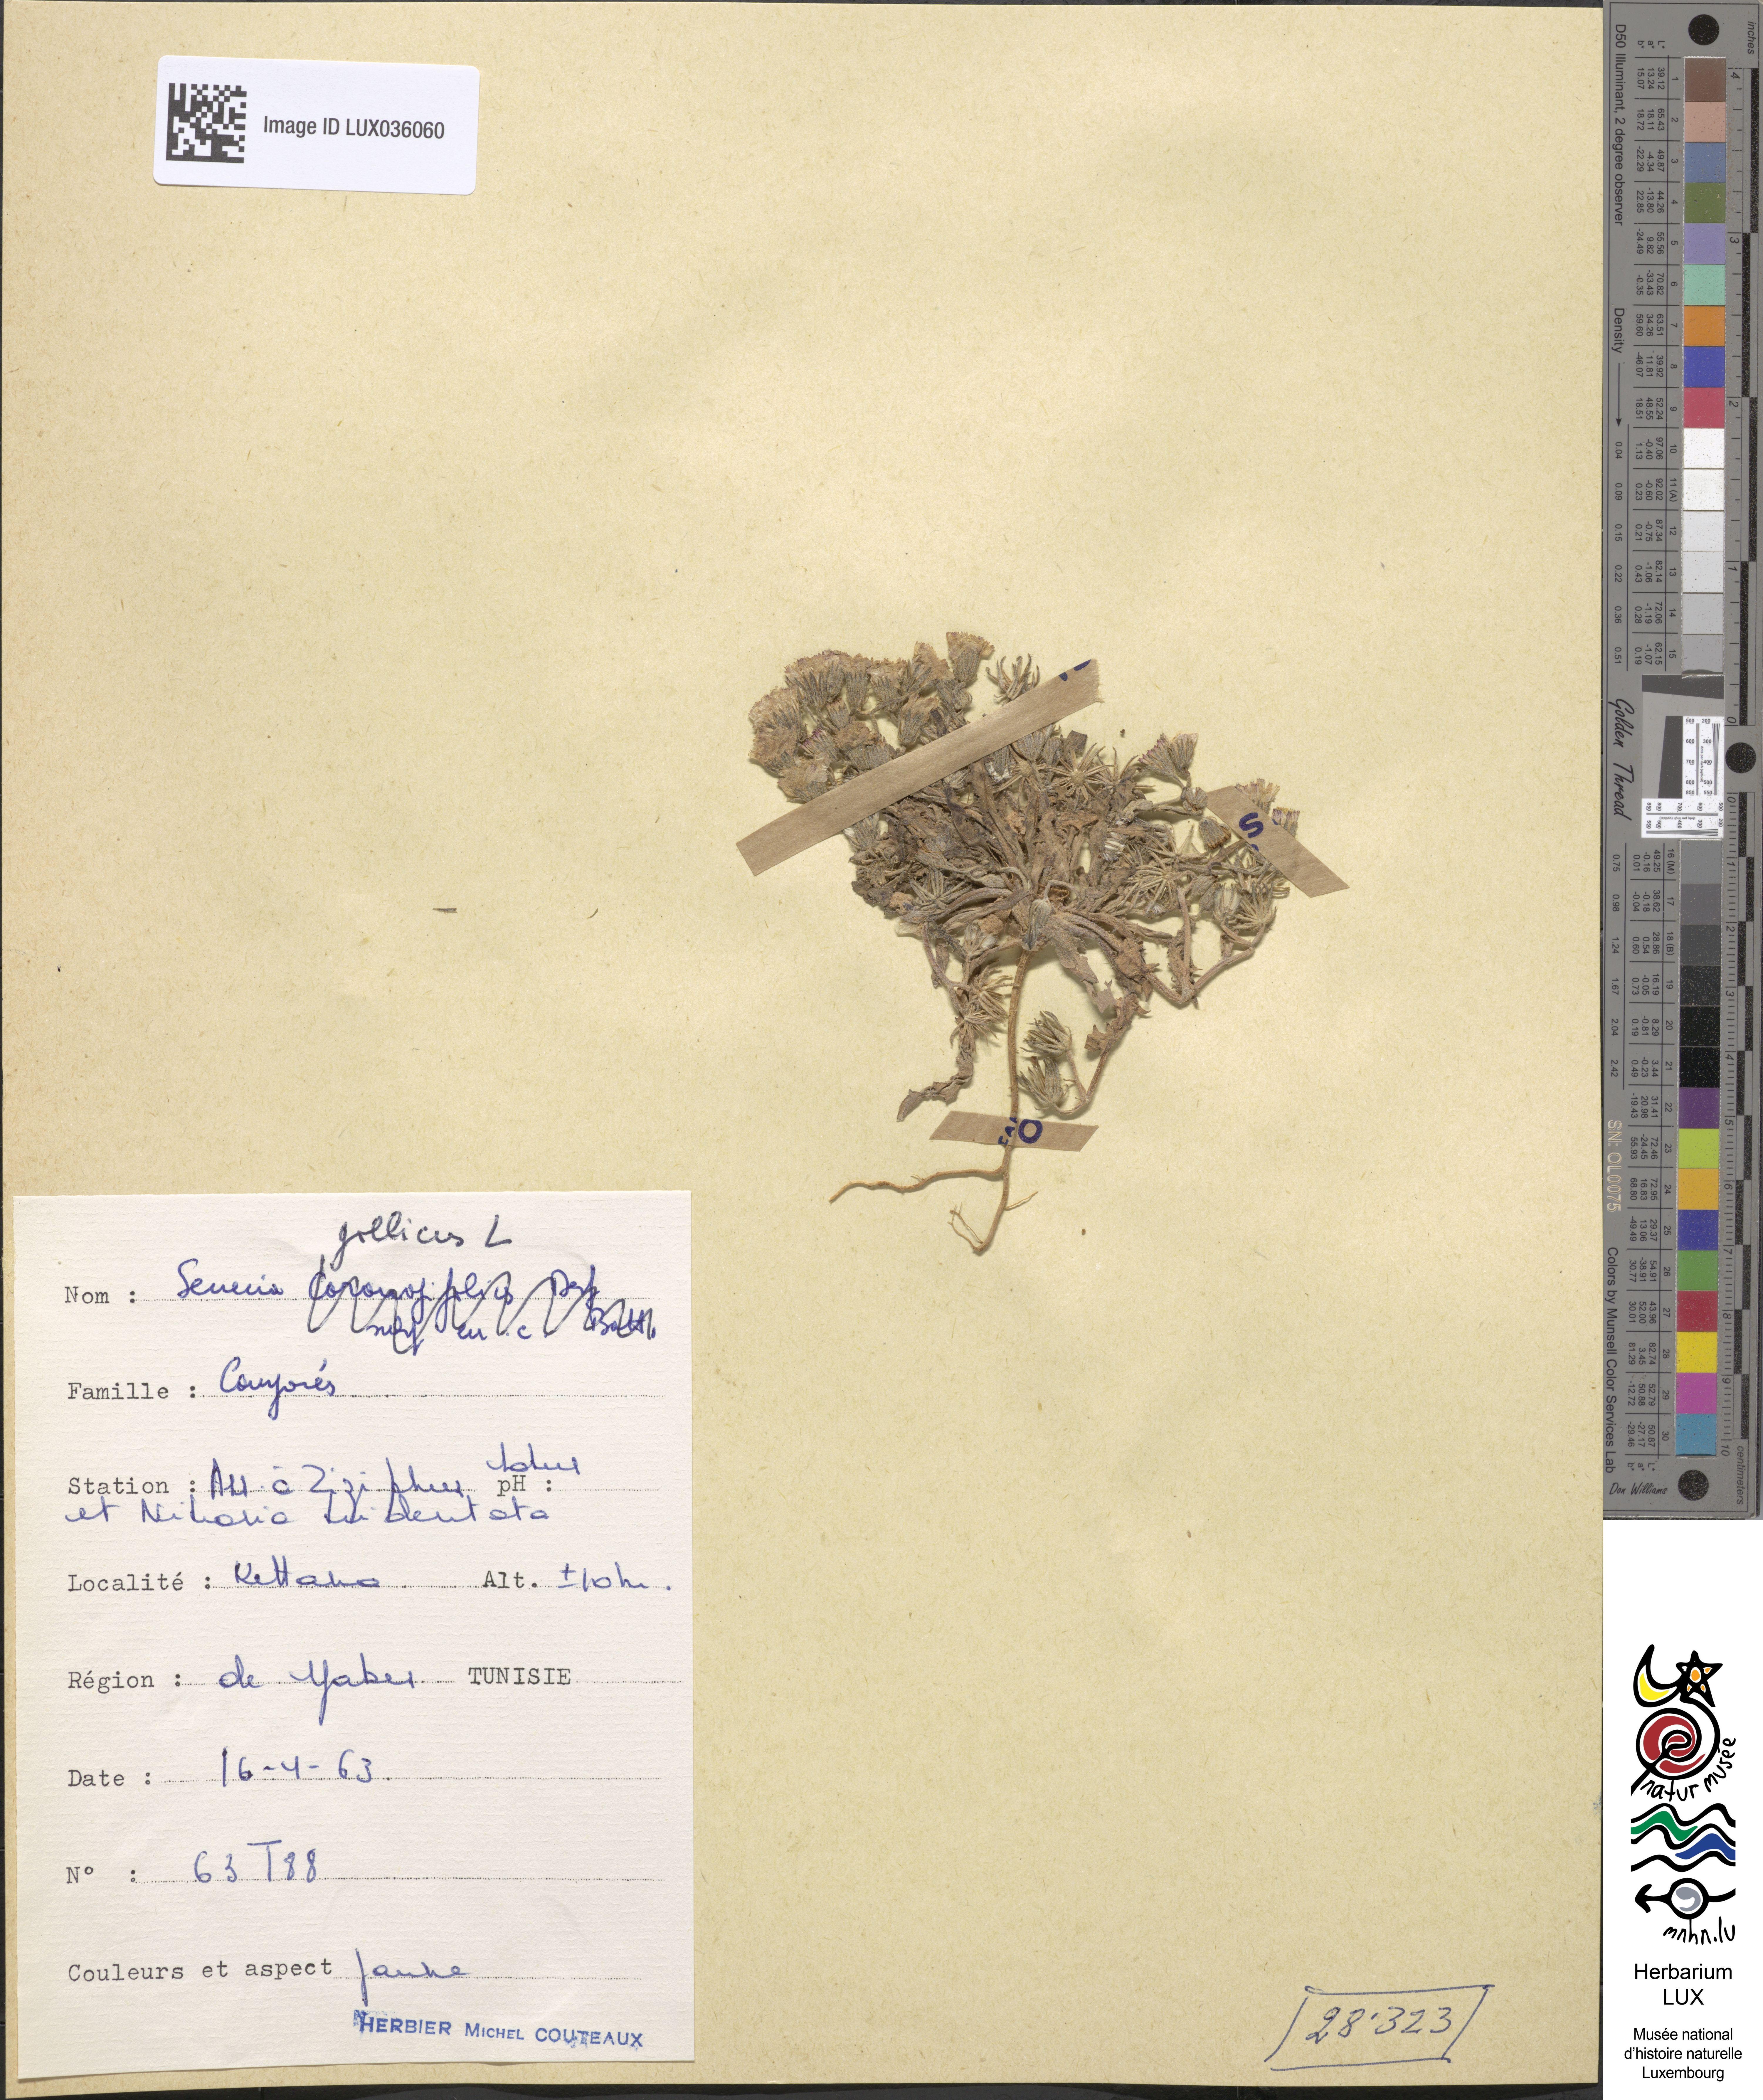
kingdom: Plantae
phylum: Tracheophyta
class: Magnoliopsida
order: Asterales
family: Asteraceae
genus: Senecio
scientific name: Senecio gallicus
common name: French groundsel
